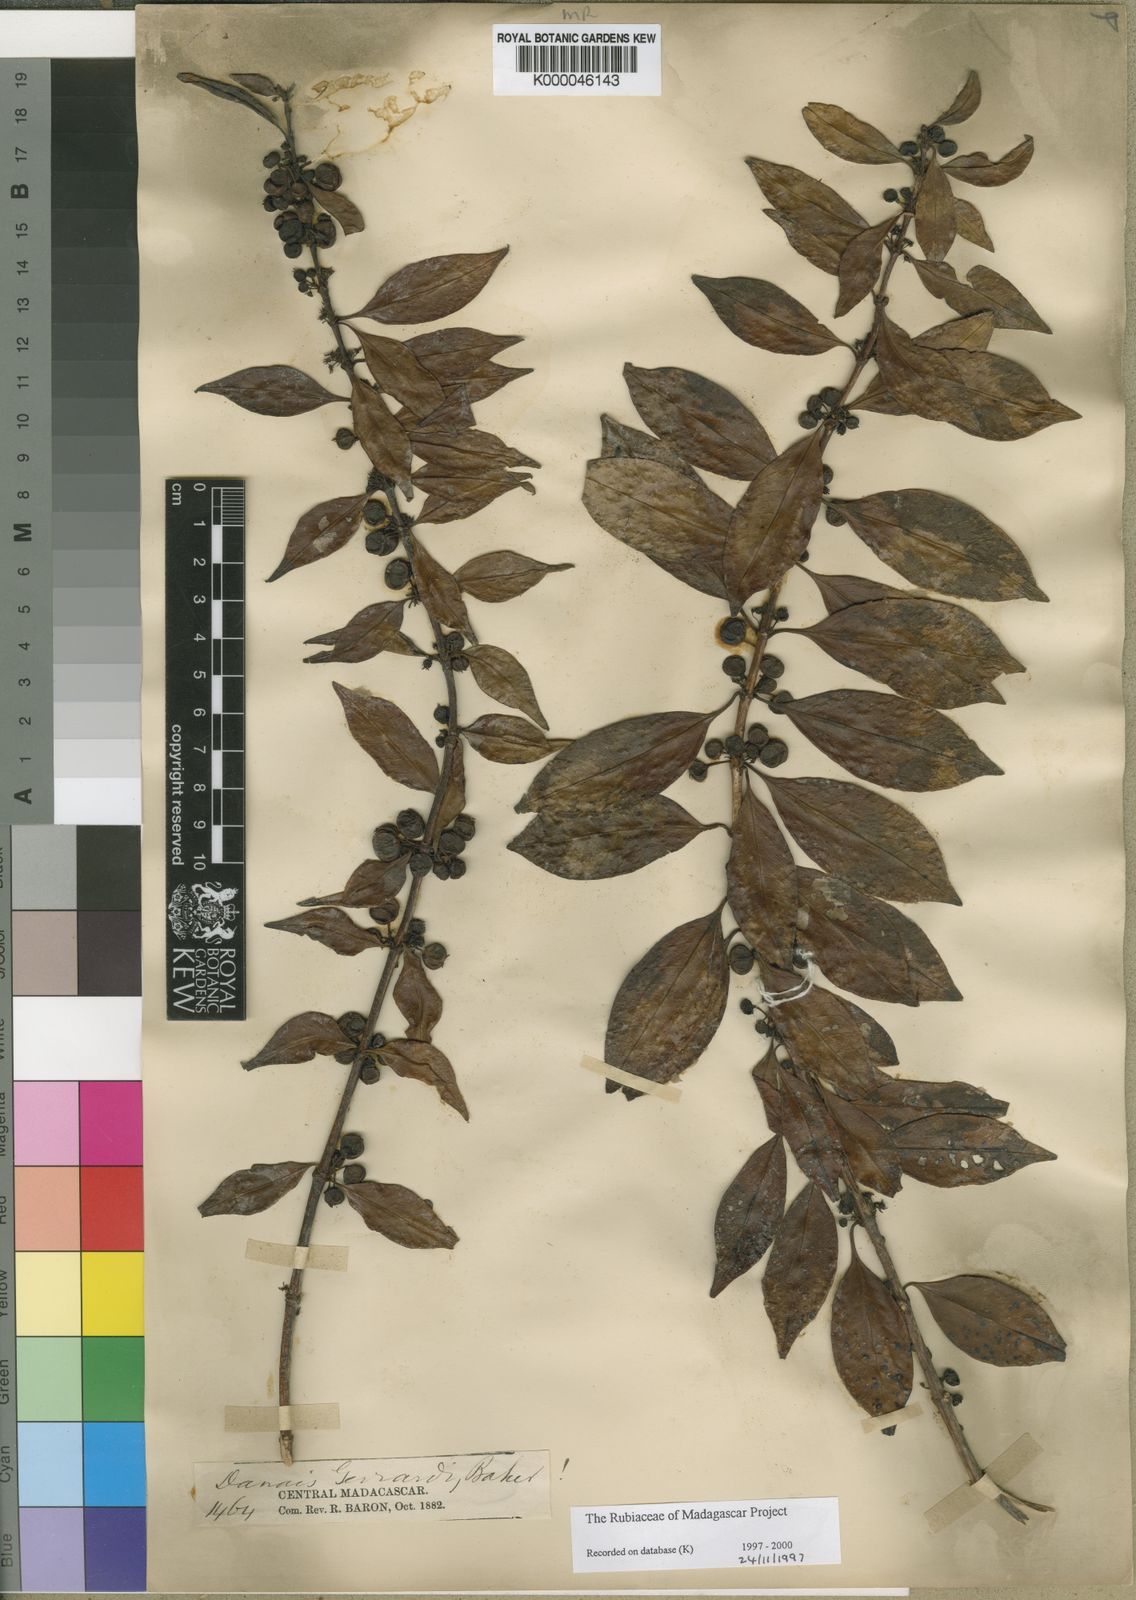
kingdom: Plantae
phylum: Tracheophyta
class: Magnoliopsida
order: Gentianales
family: Rubiaceae
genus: Danais
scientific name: Danais cernua
